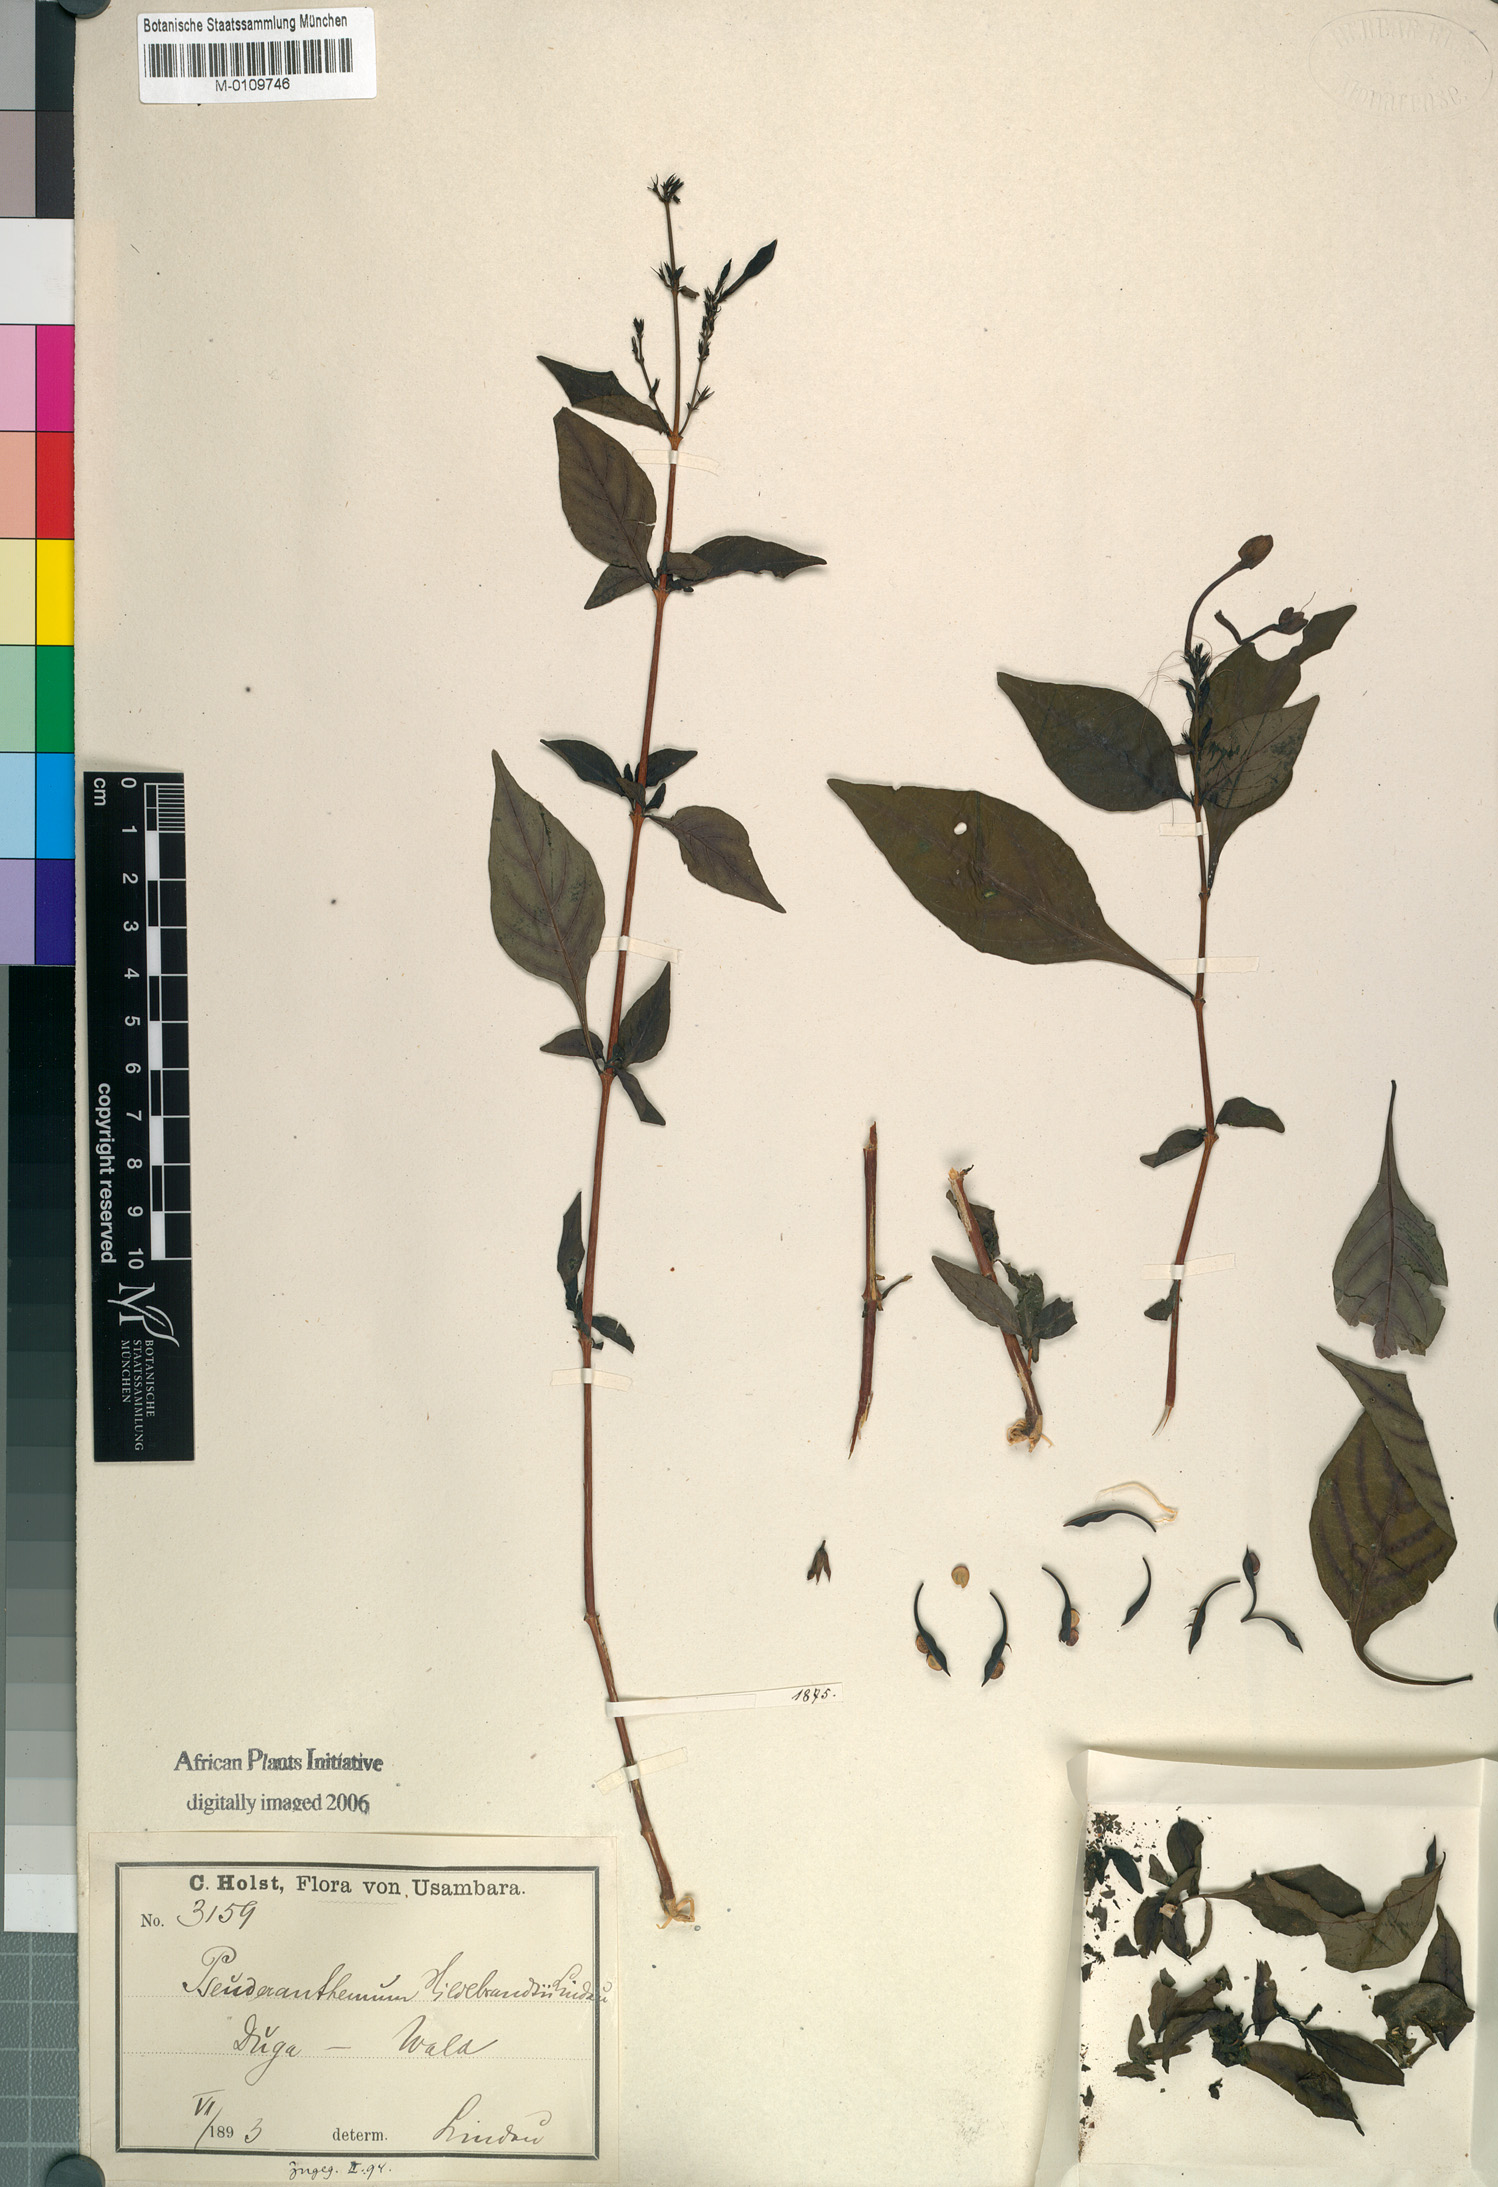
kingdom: Plantae
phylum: Tracheophyta
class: Magnoliopsida
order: Lamiales
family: Acanthaceae
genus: Pseuderanthemum
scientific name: Pseuderanthemum hildebrandtii
